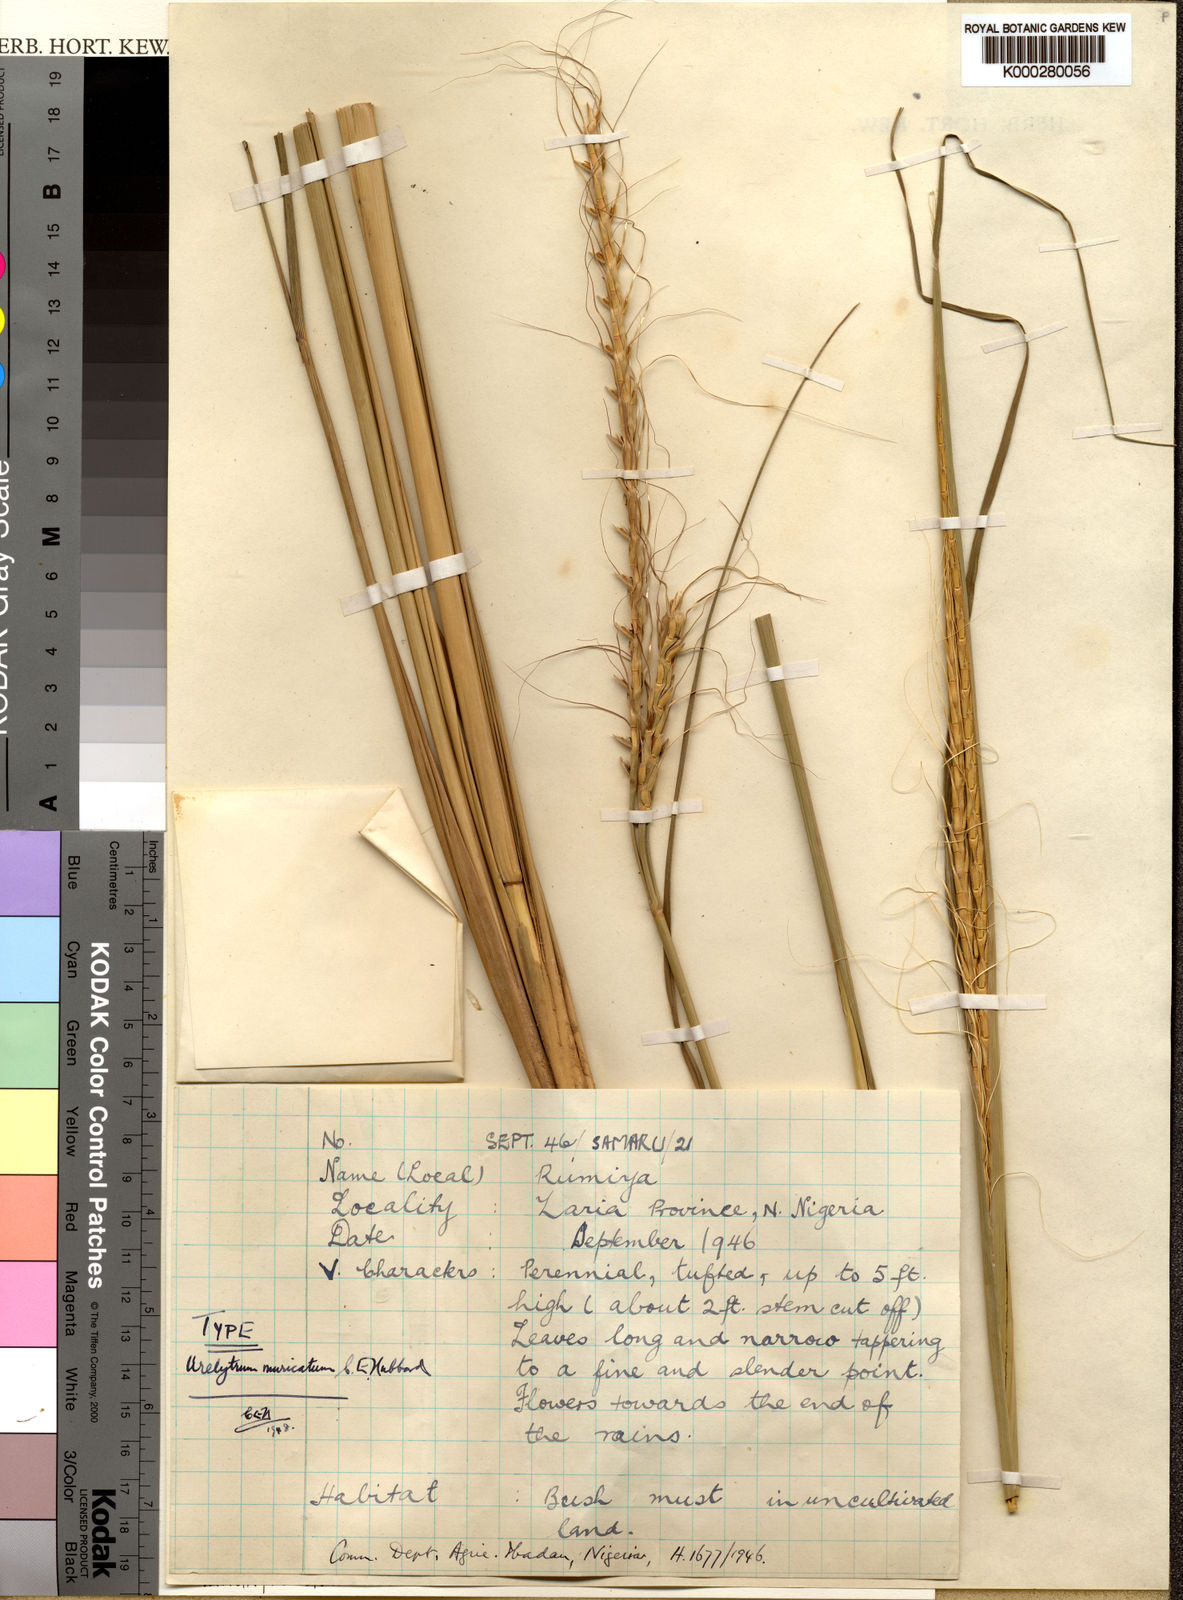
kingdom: Plantae
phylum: Tracheophyta
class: Liliopsida
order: Poales
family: Poaceae
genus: Urelytrum
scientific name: Urelytrum muricatum
